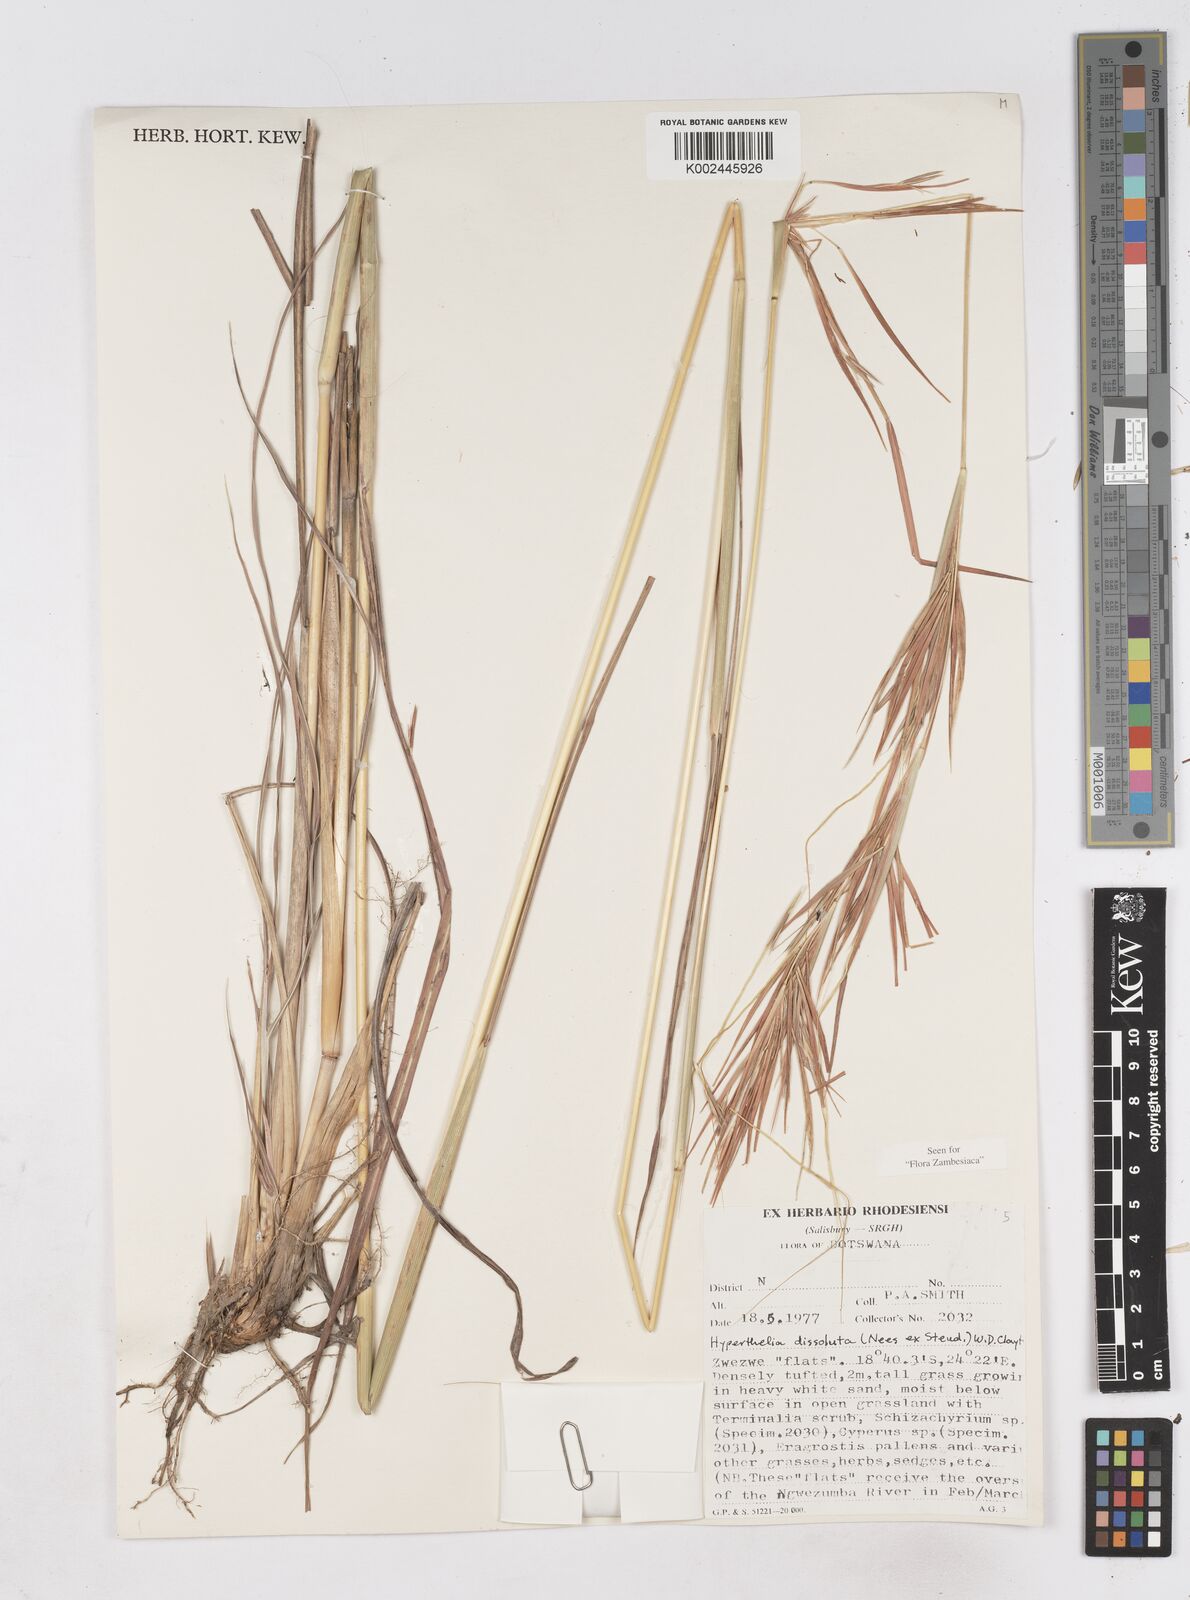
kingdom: Plantae
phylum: Tracheophyta
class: Liliopsida
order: Poales
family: Poaceae
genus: Hyperthelia
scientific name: Hyperthelia dissoluta
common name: Yellow thatching grass
